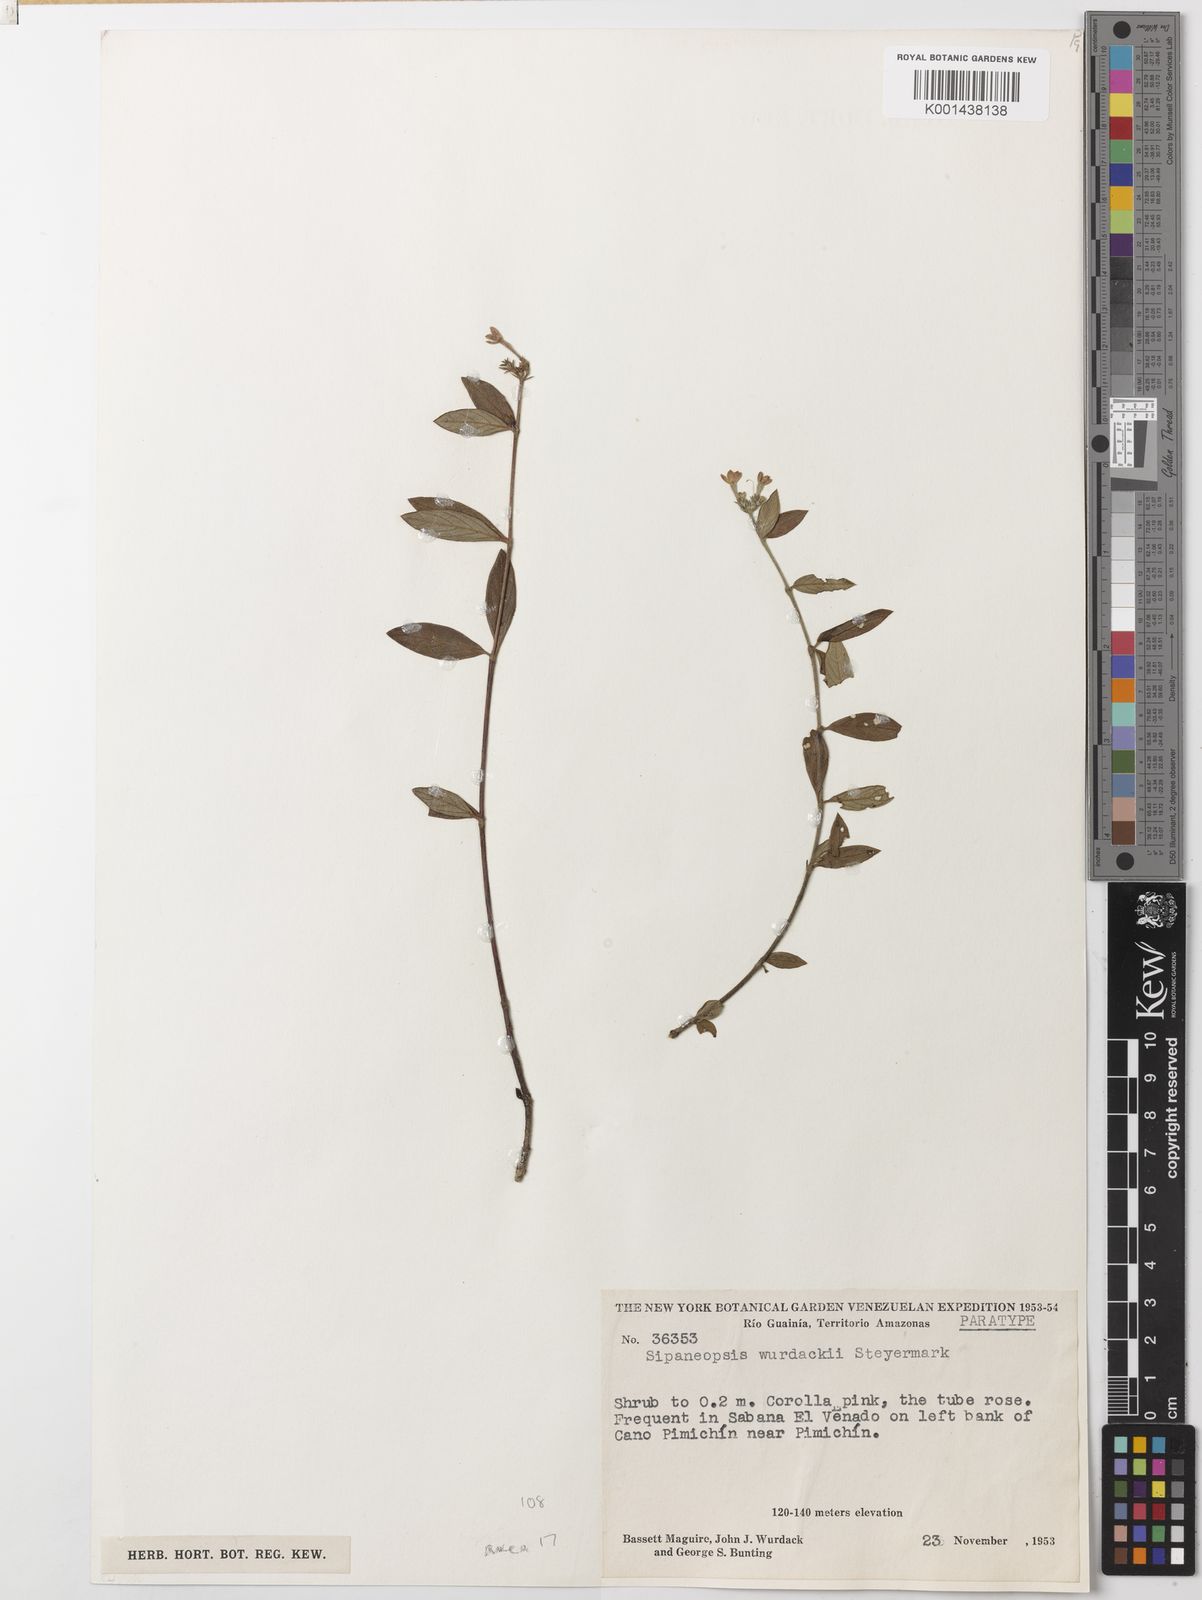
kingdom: Plantae
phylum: Tracheophyta
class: Magnoliopsida
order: Gentianales
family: Rubiaceae
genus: Sipaneopsis
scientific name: Sipaneopsis maguirei
